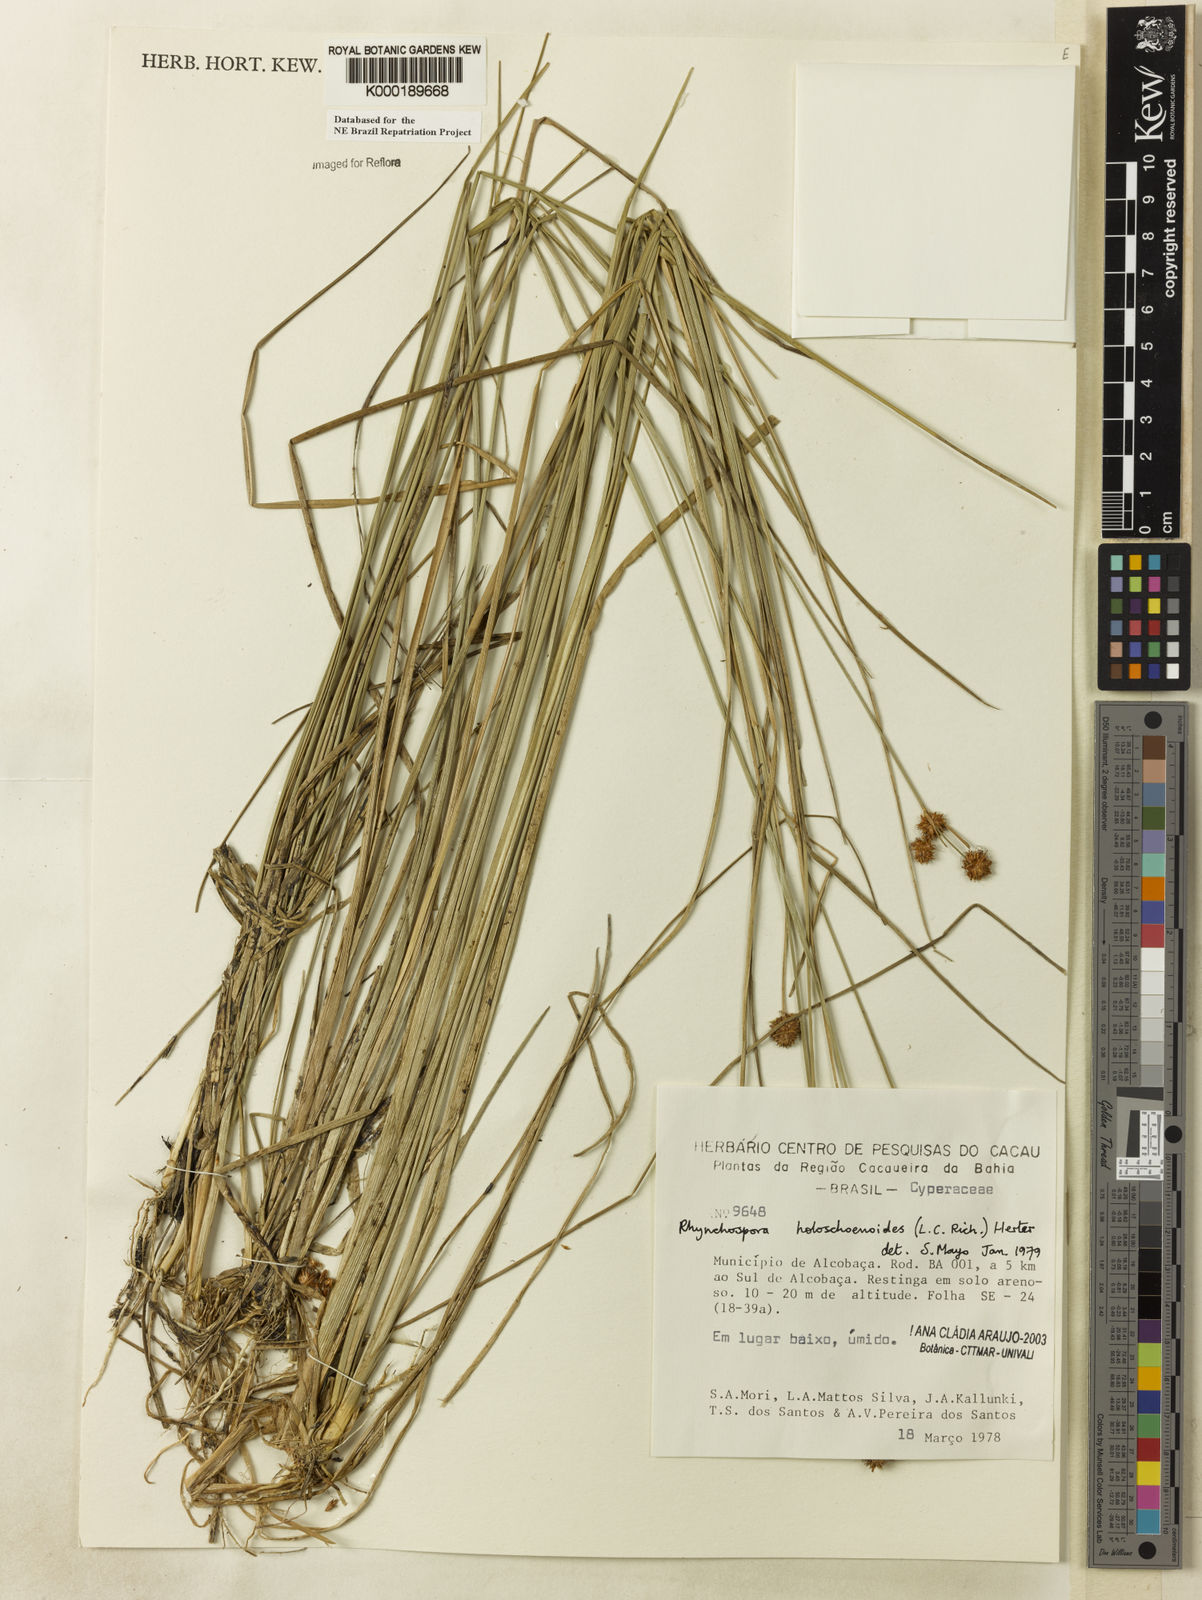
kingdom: Plantae
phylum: Tracheophyta
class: Liliopsida
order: Poales
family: Cyperaceae
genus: Rhynchospora
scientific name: Rhynchospora holoschoenoides
